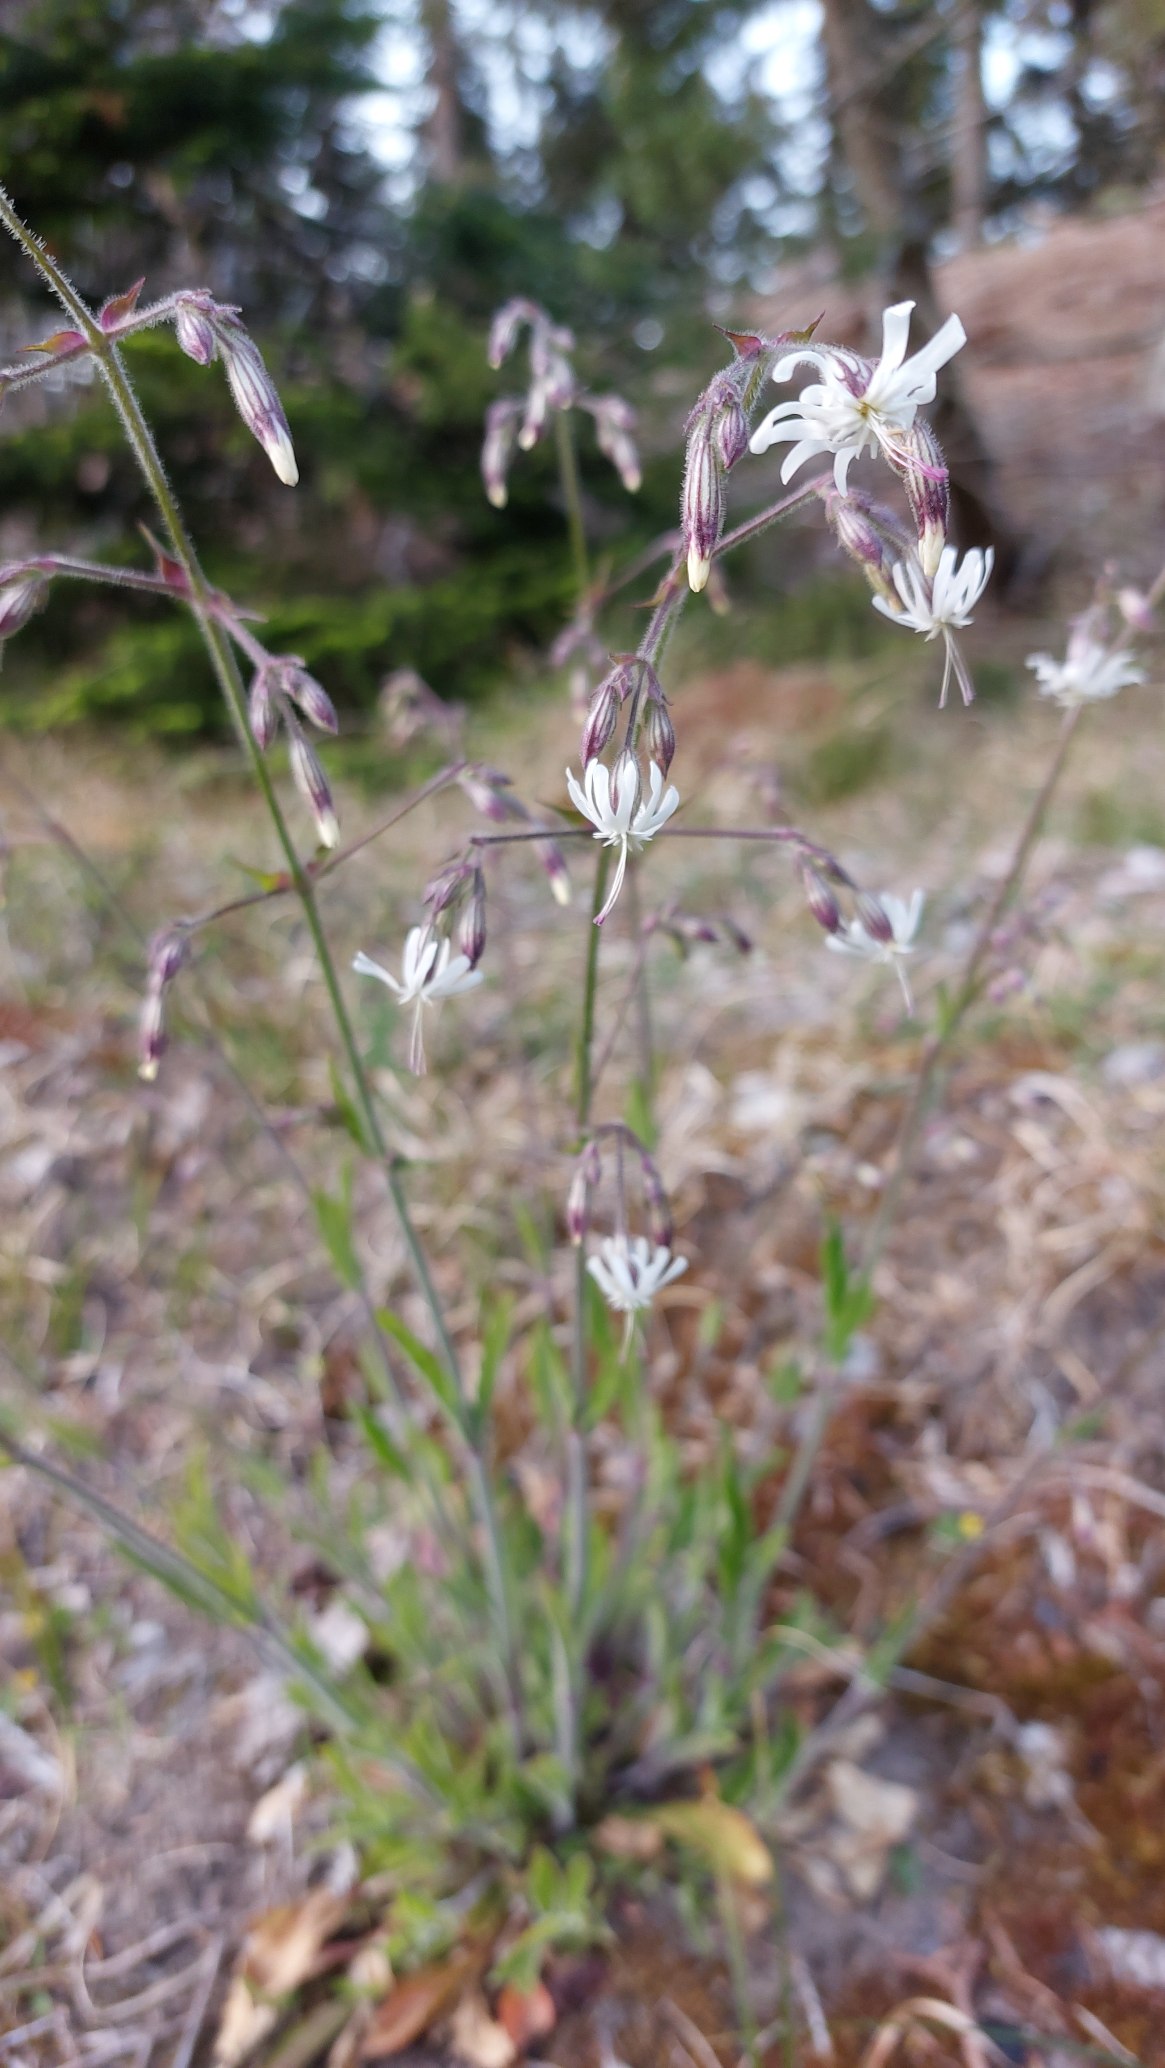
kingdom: Plantae
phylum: Tracheophyta
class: Magnoliopsida
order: Caryophyllales
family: Caryophyllaceae
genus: Silene
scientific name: Silene nutans
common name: Nikkende limurt
